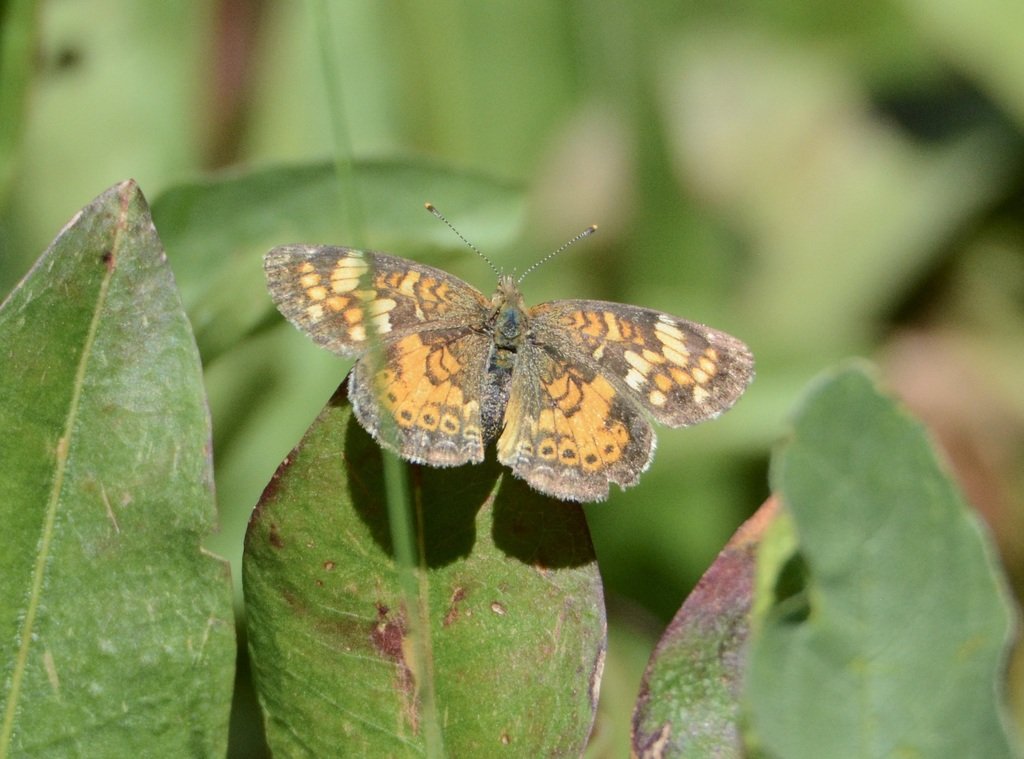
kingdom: Animalia
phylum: Arthropoda
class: Insecta
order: Lepidoptera
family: Nymphalidae
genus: Phyciodes
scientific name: Phyciodes tharos
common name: Northern Crescent
